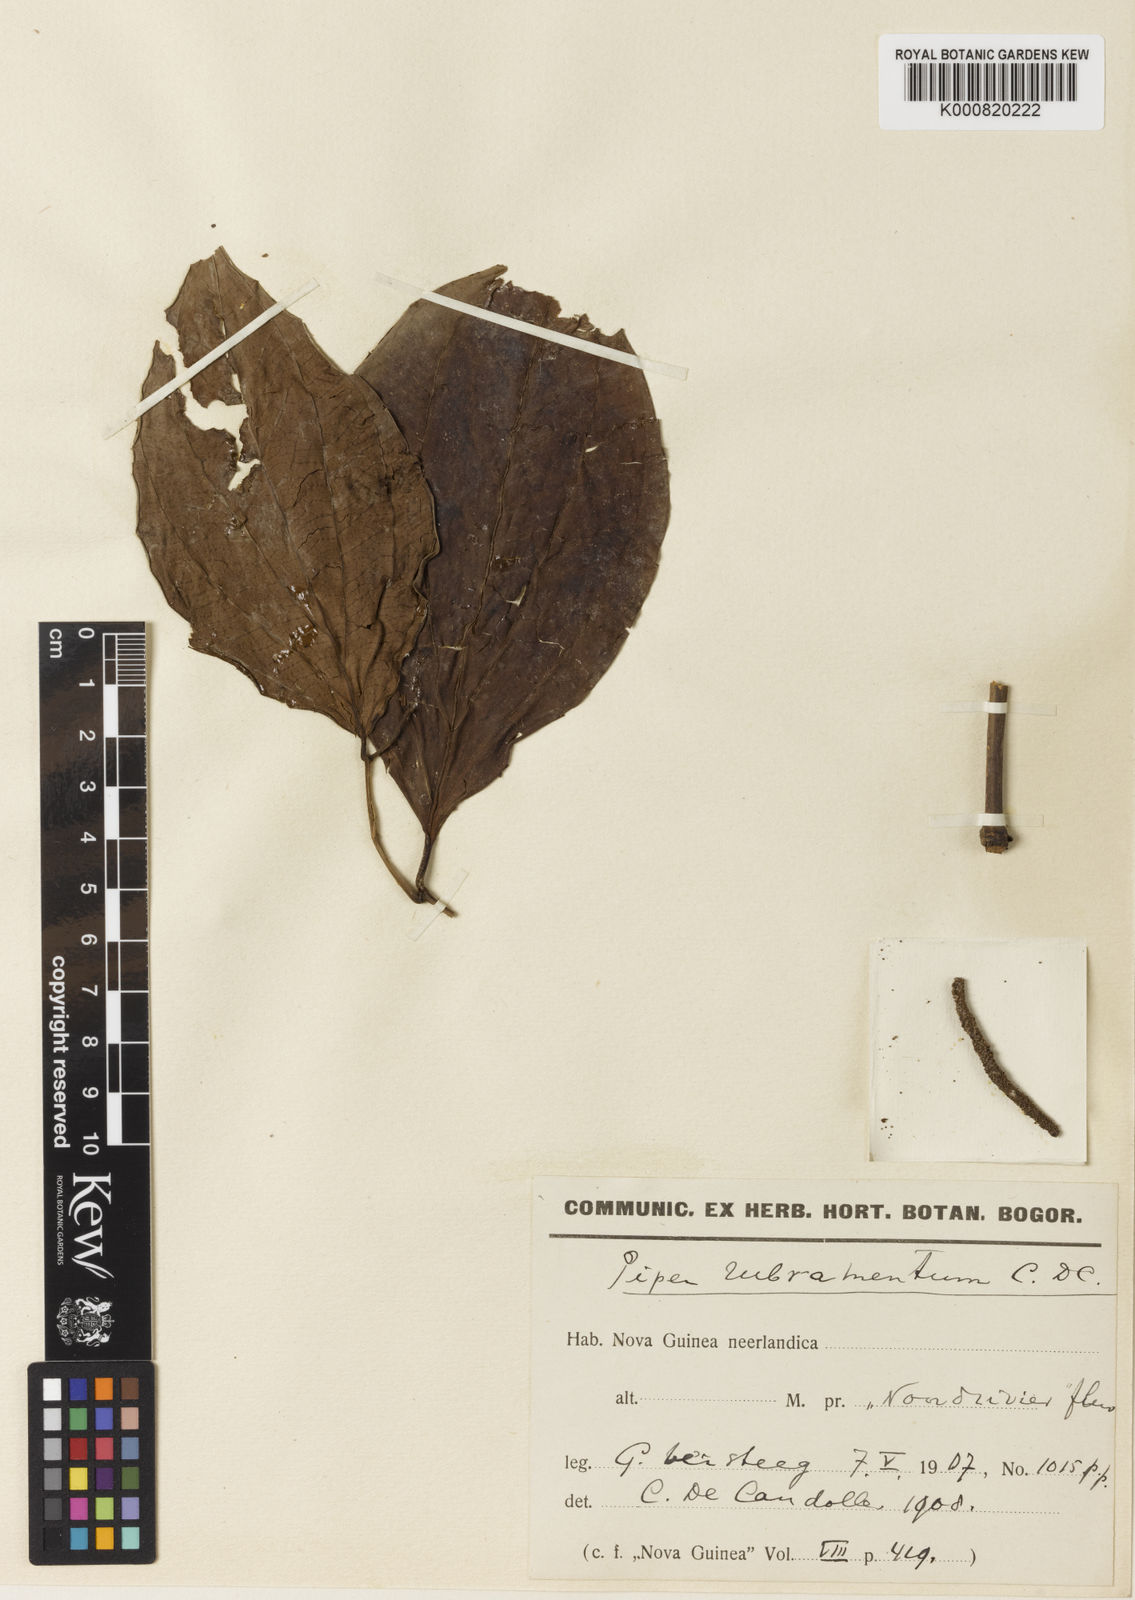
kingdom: Plantae
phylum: Tracheophyta
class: Magnoliopsida
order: Piperales
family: Piperaceae
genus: Piper
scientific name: Piper rubramentum
